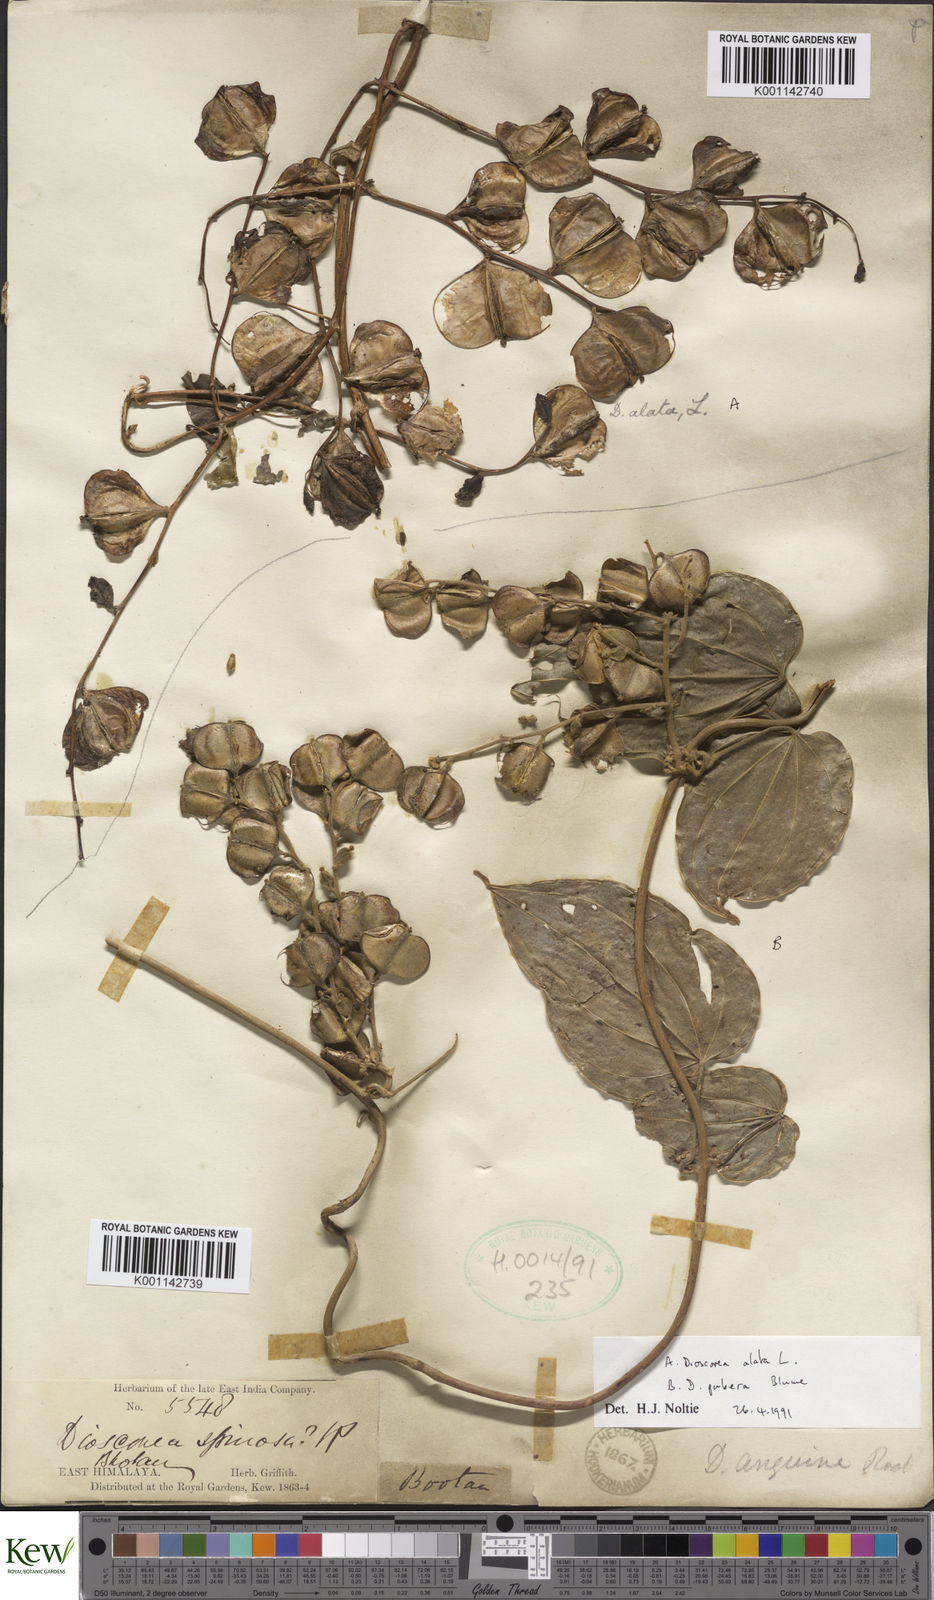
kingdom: Plantae
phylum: Tracheophyta
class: Liliopsida
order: Dioscoreales
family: Dioscoreaceae
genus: Dioscorea
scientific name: Dioscorea alata
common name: Water yam
